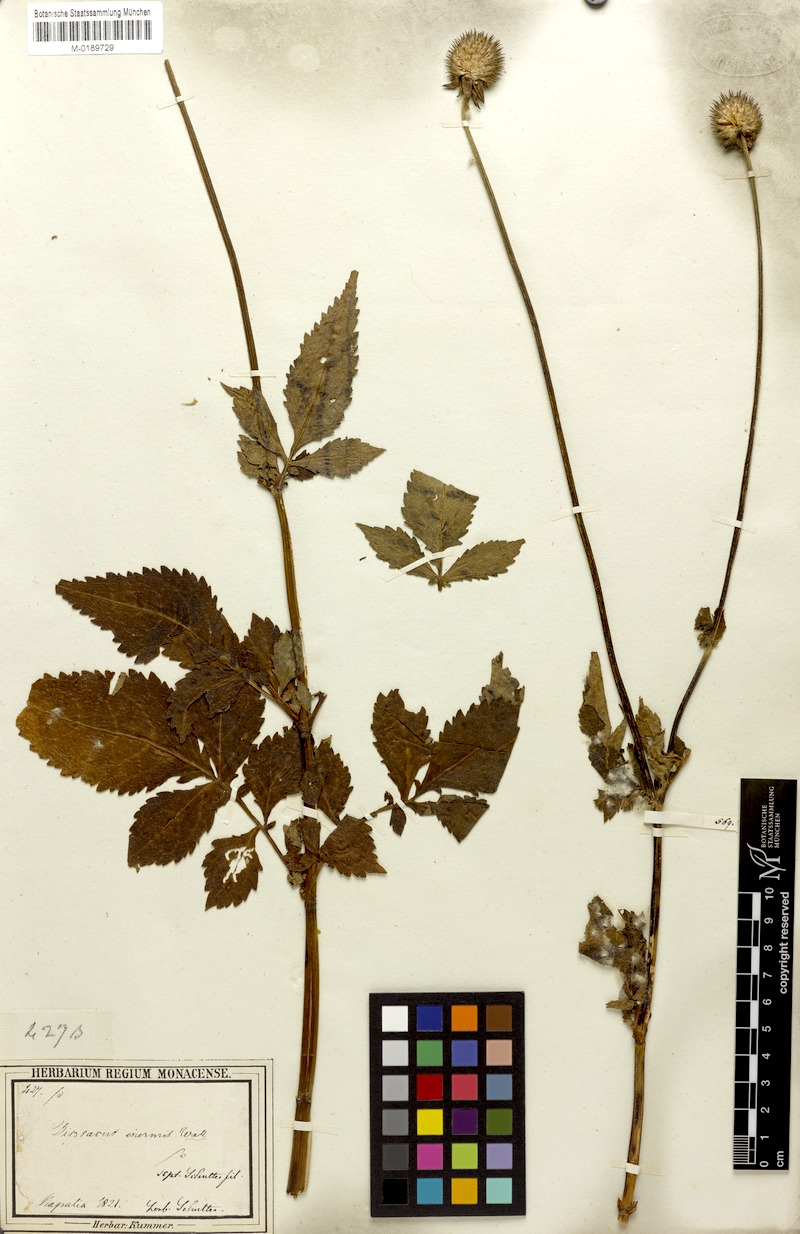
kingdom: Plantae
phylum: Tracheophyta
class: Magnoliopsida
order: Dipsacales
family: Caprifoliaceae
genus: Dipsacus
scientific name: Dipsacus inermis
